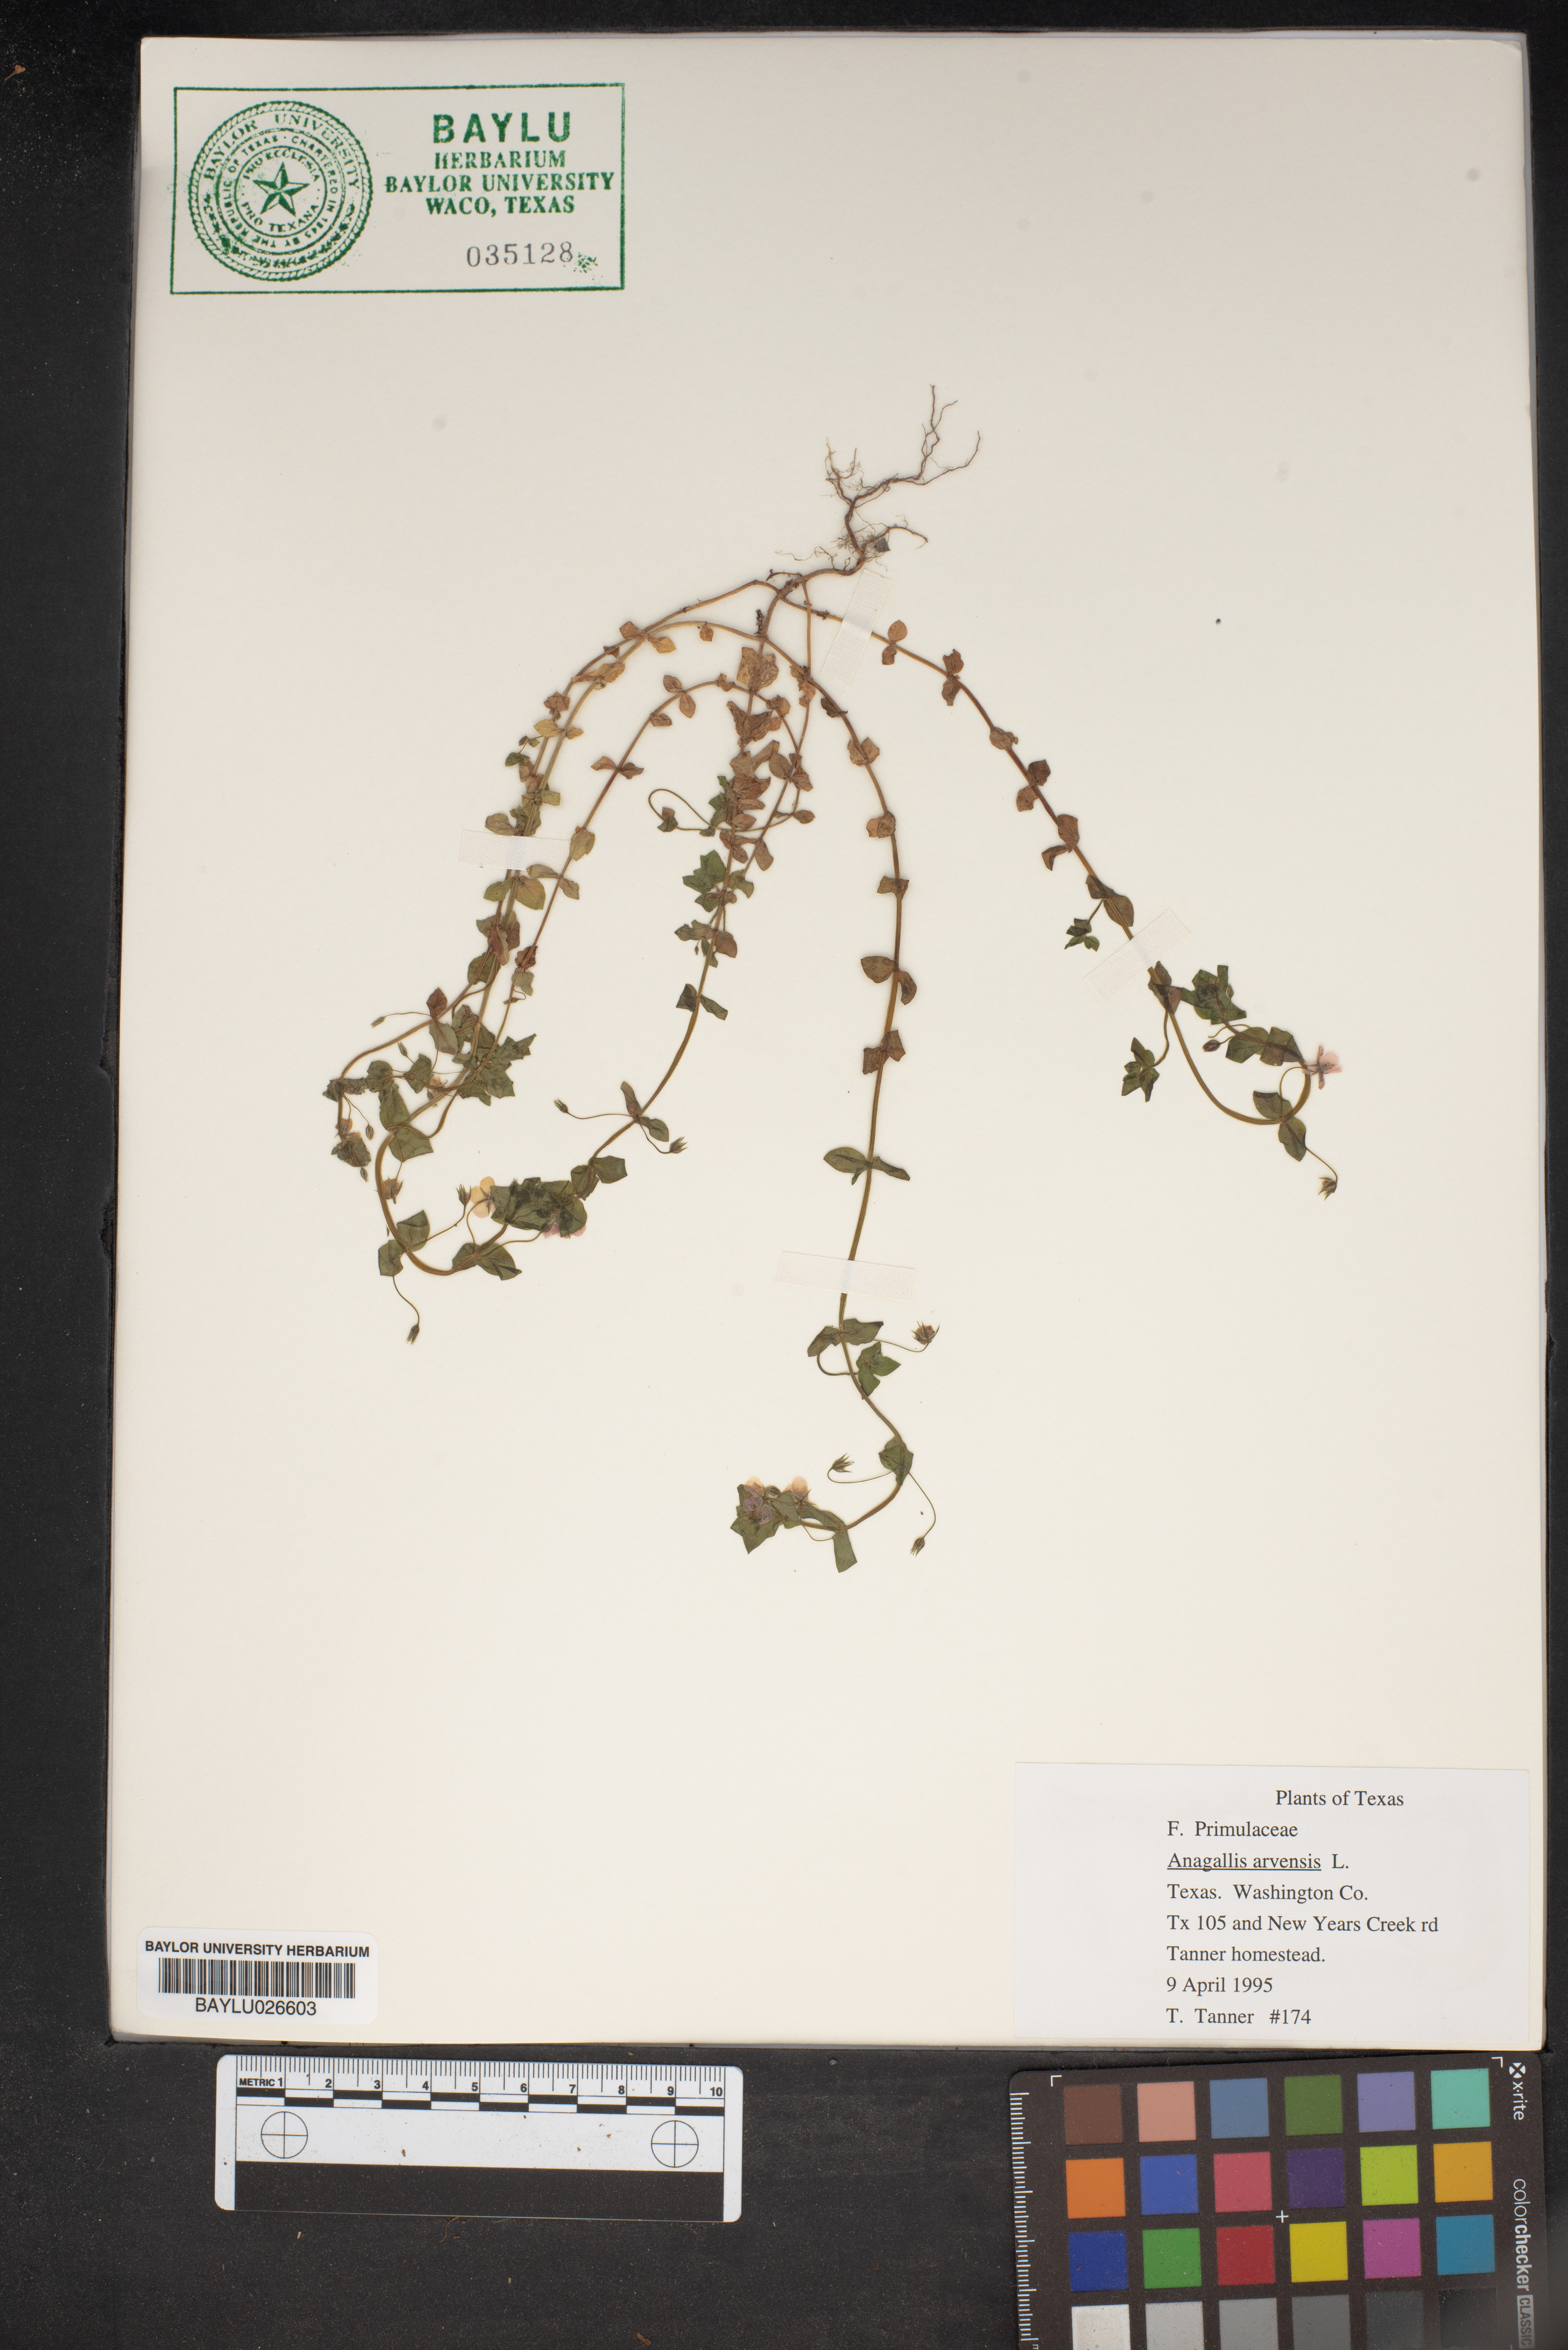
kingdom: Plantae
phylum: Tracheophyta
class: Magnoliopsida
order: Ericales
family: Primulaceae
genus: Lysimachia
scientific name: Lysimachia arvensis
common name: Scarlet pimpernel
